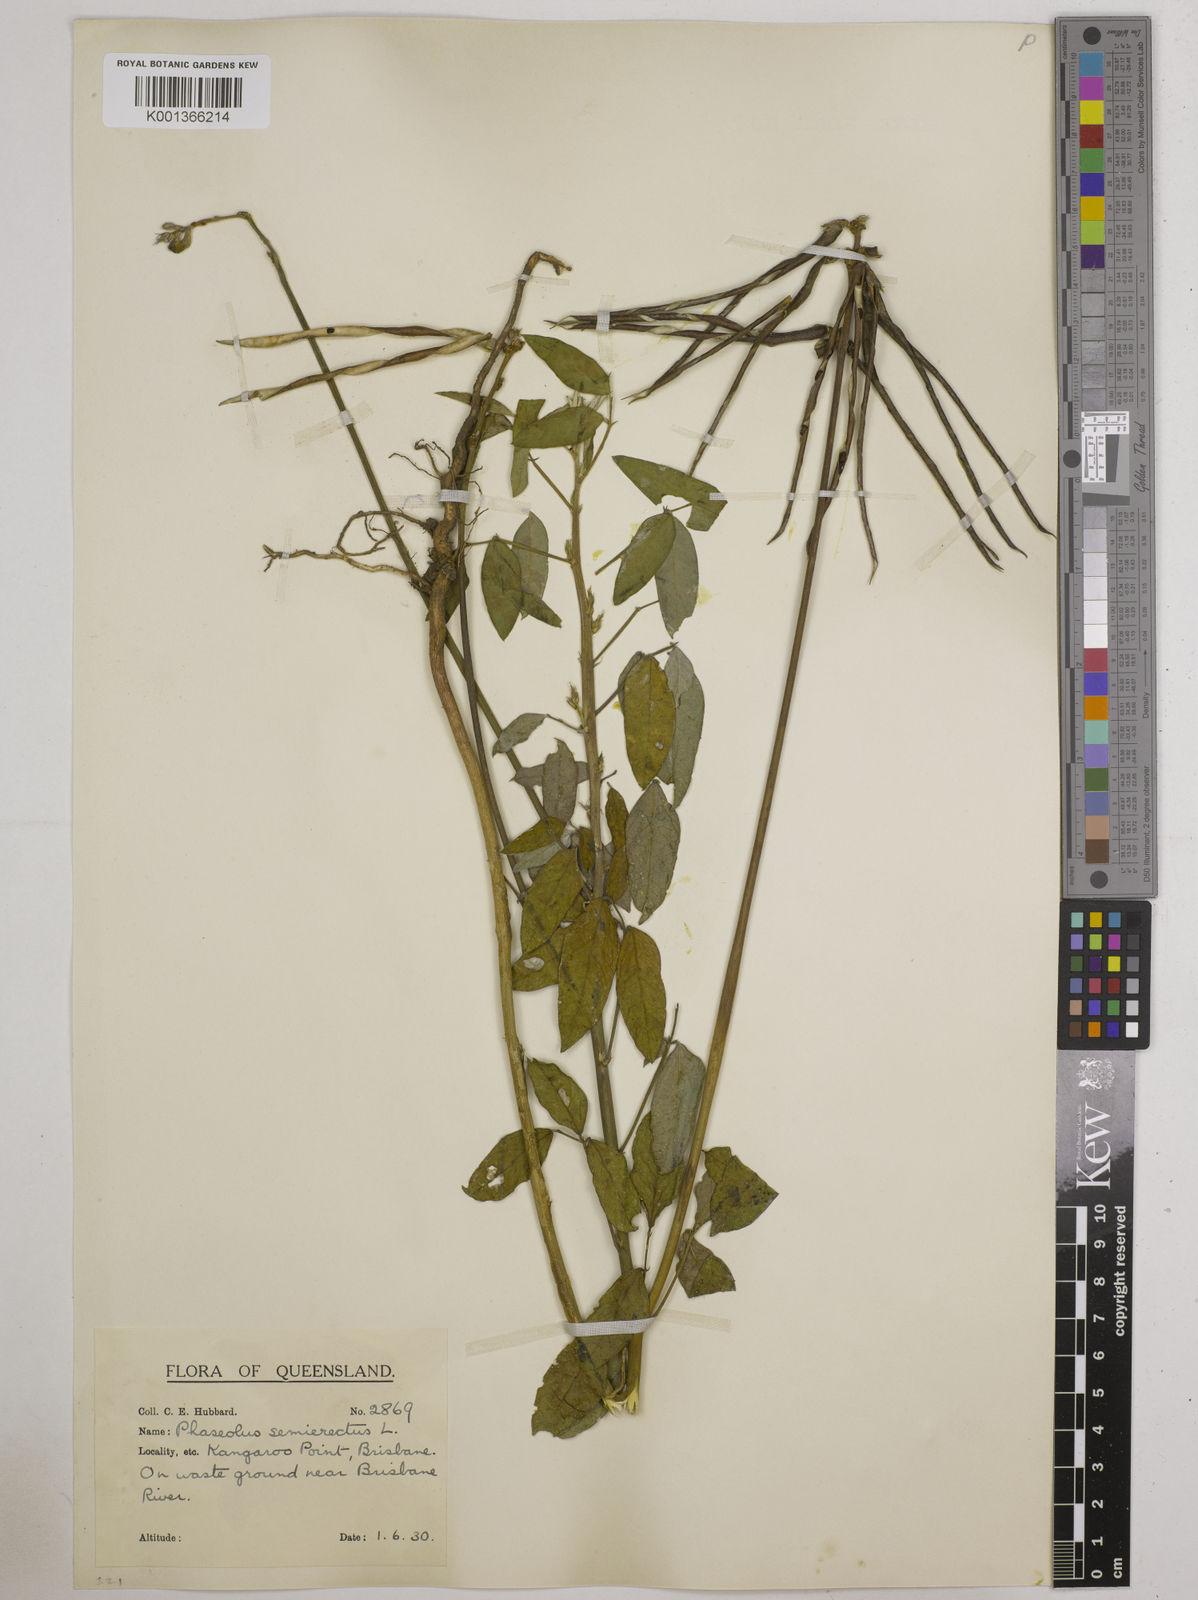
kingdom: Plantae
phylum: Tracheophyta
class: Magnoliopsida
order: Fabales
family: Fabaceae
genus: Macroptilium
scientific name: Macroptilium lathyroides
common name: Wild bushbean
